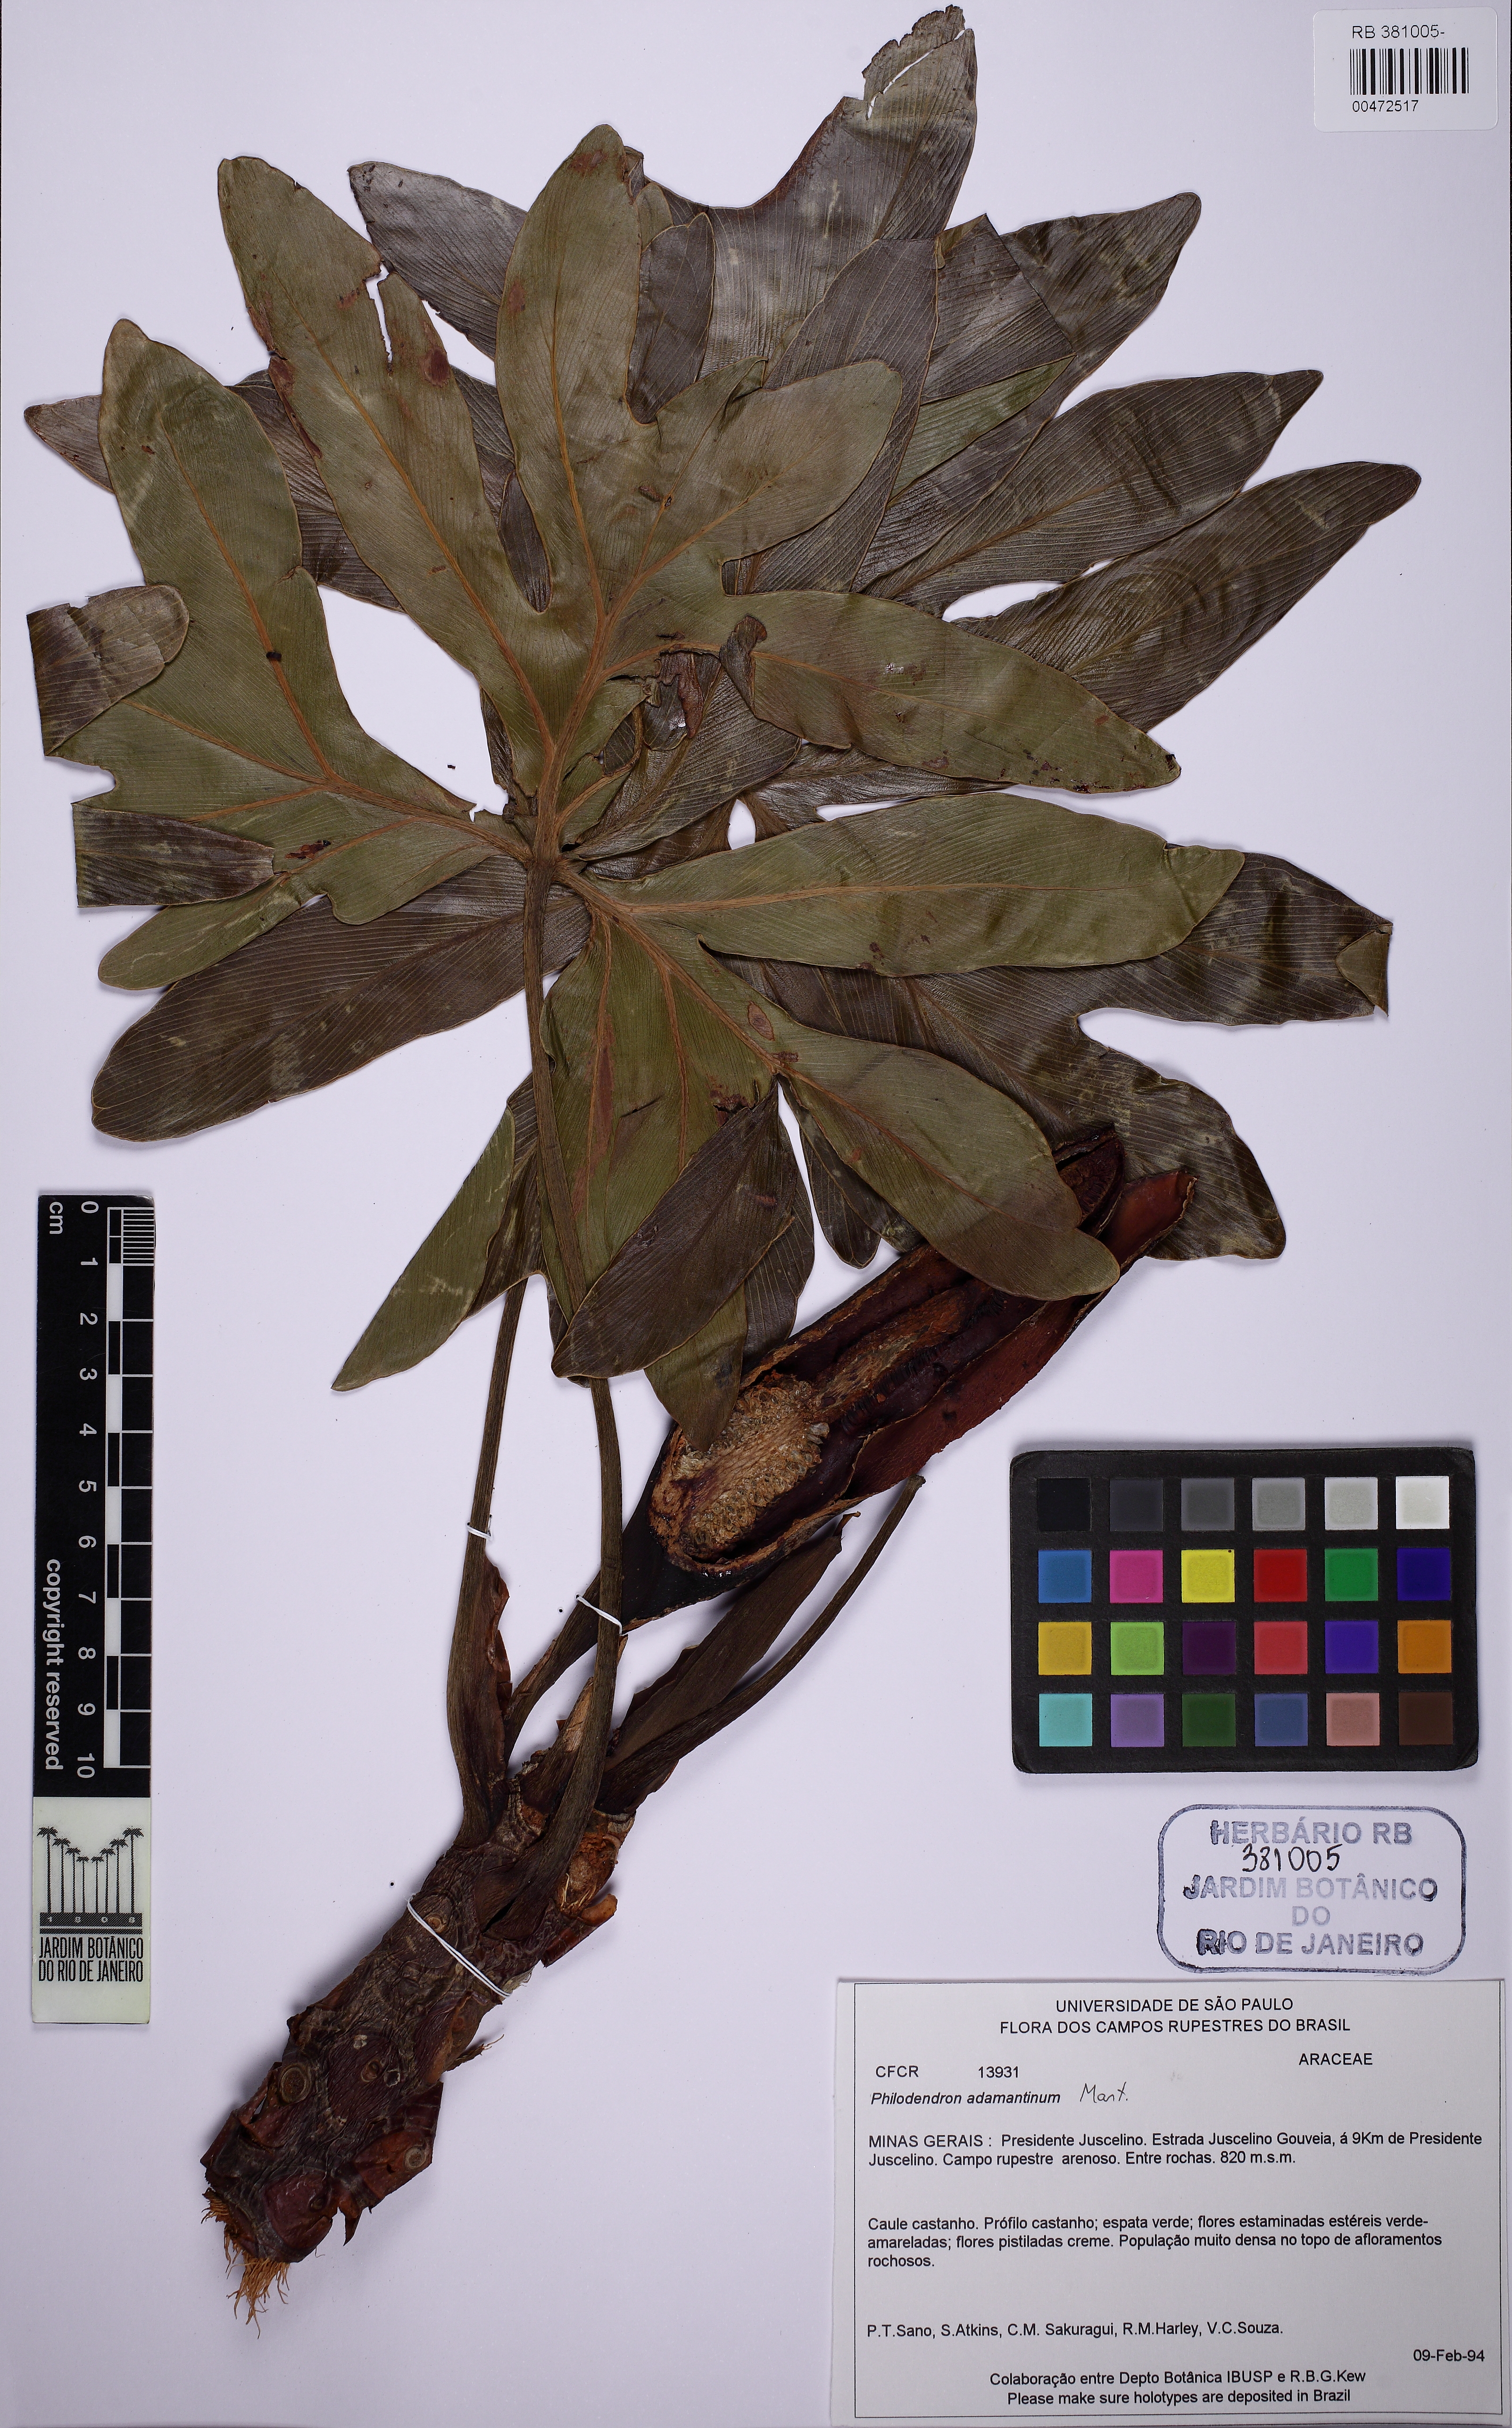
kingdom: Plantae
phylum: Tracheophyta
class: Liliopsida
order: Alismatales
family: Araceae
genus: Thaumatophyllum
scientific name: Thaumatophyllum adamantinum
